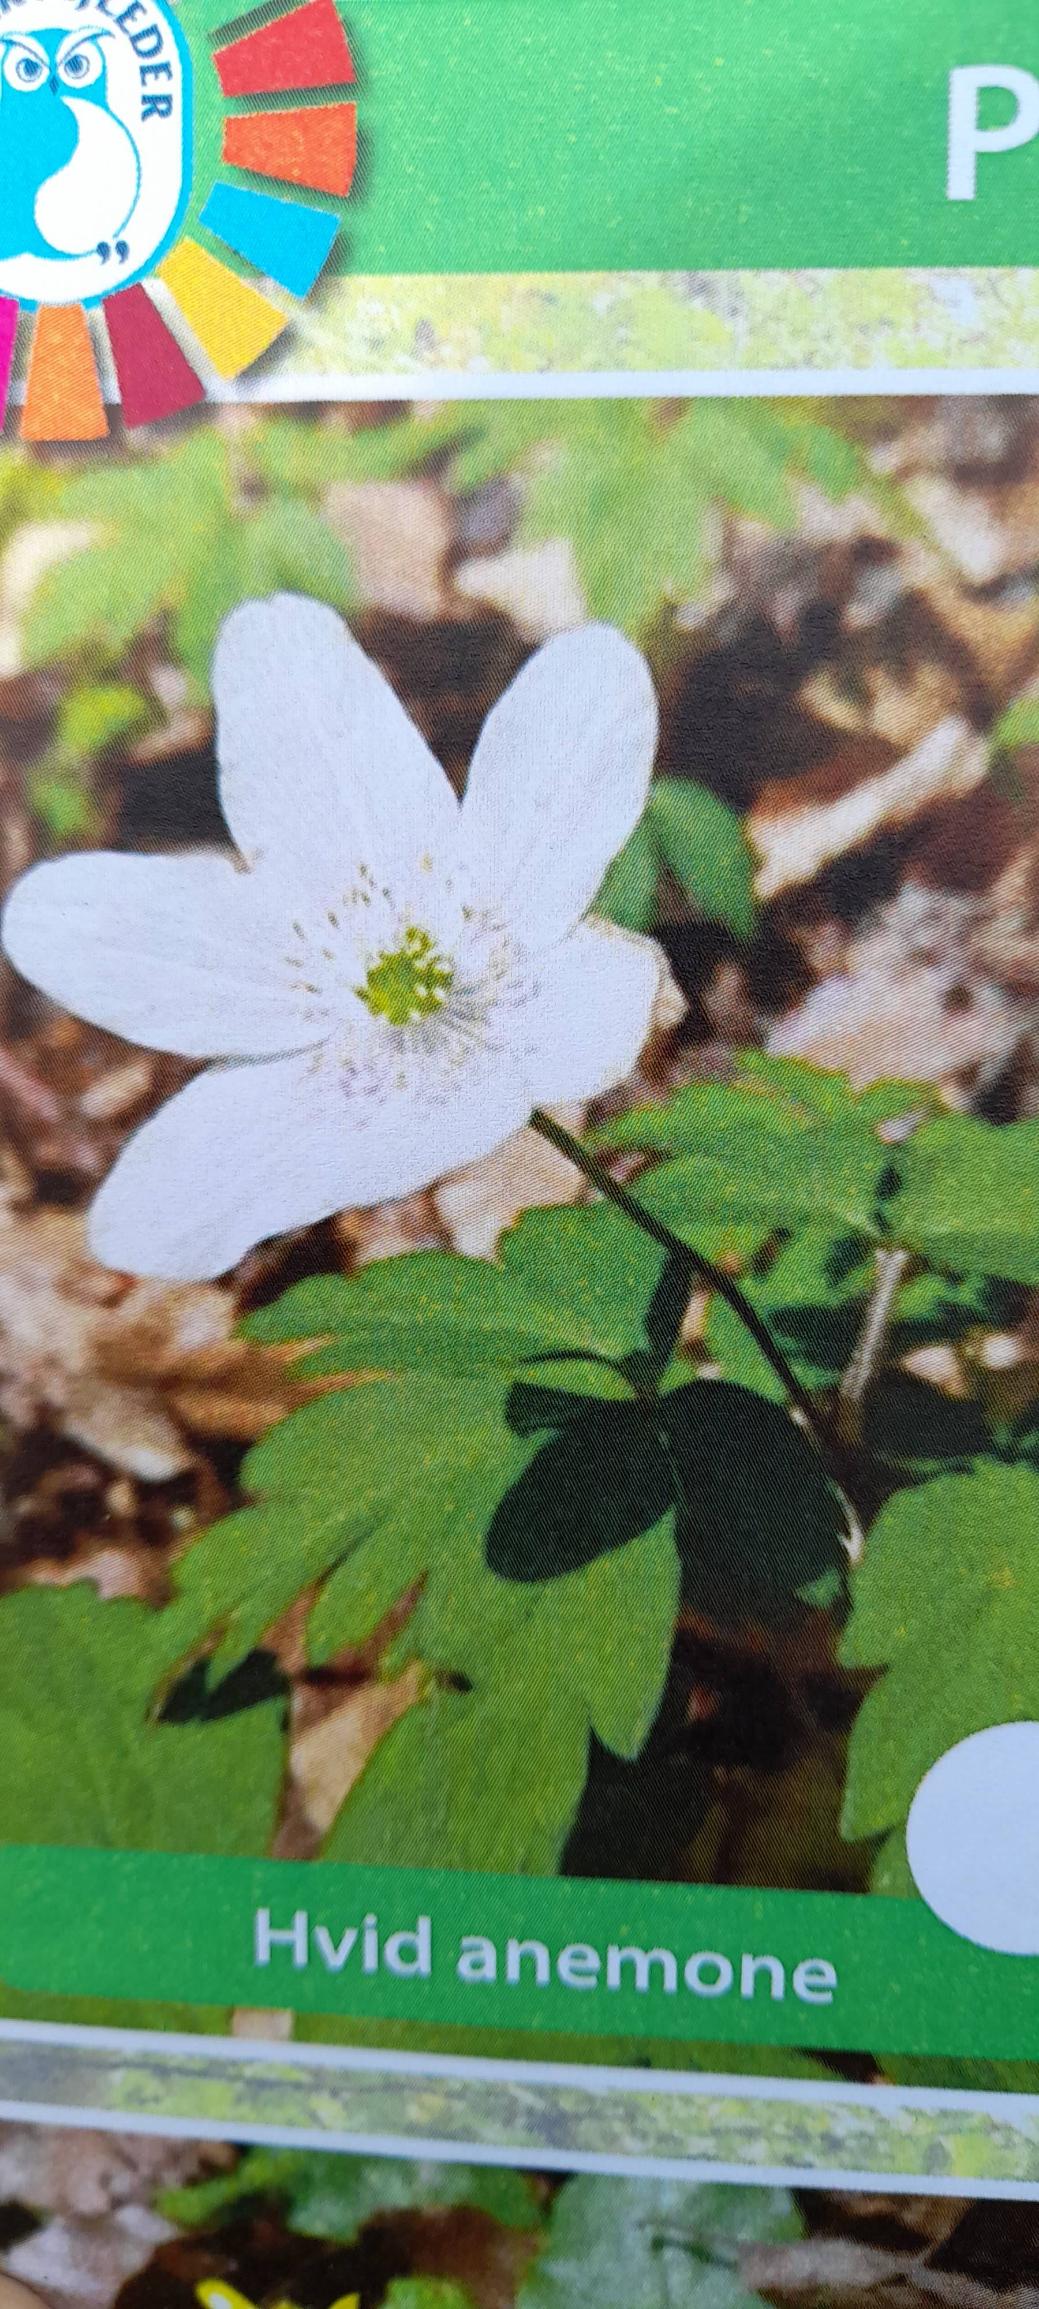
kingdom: Plantae
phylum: Tracheophyta
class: Magnoliopsida
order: Ranunculales
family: Ranunculaceae
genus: Anemone
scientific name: Anemone nemorosa
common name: Hvid anemone
